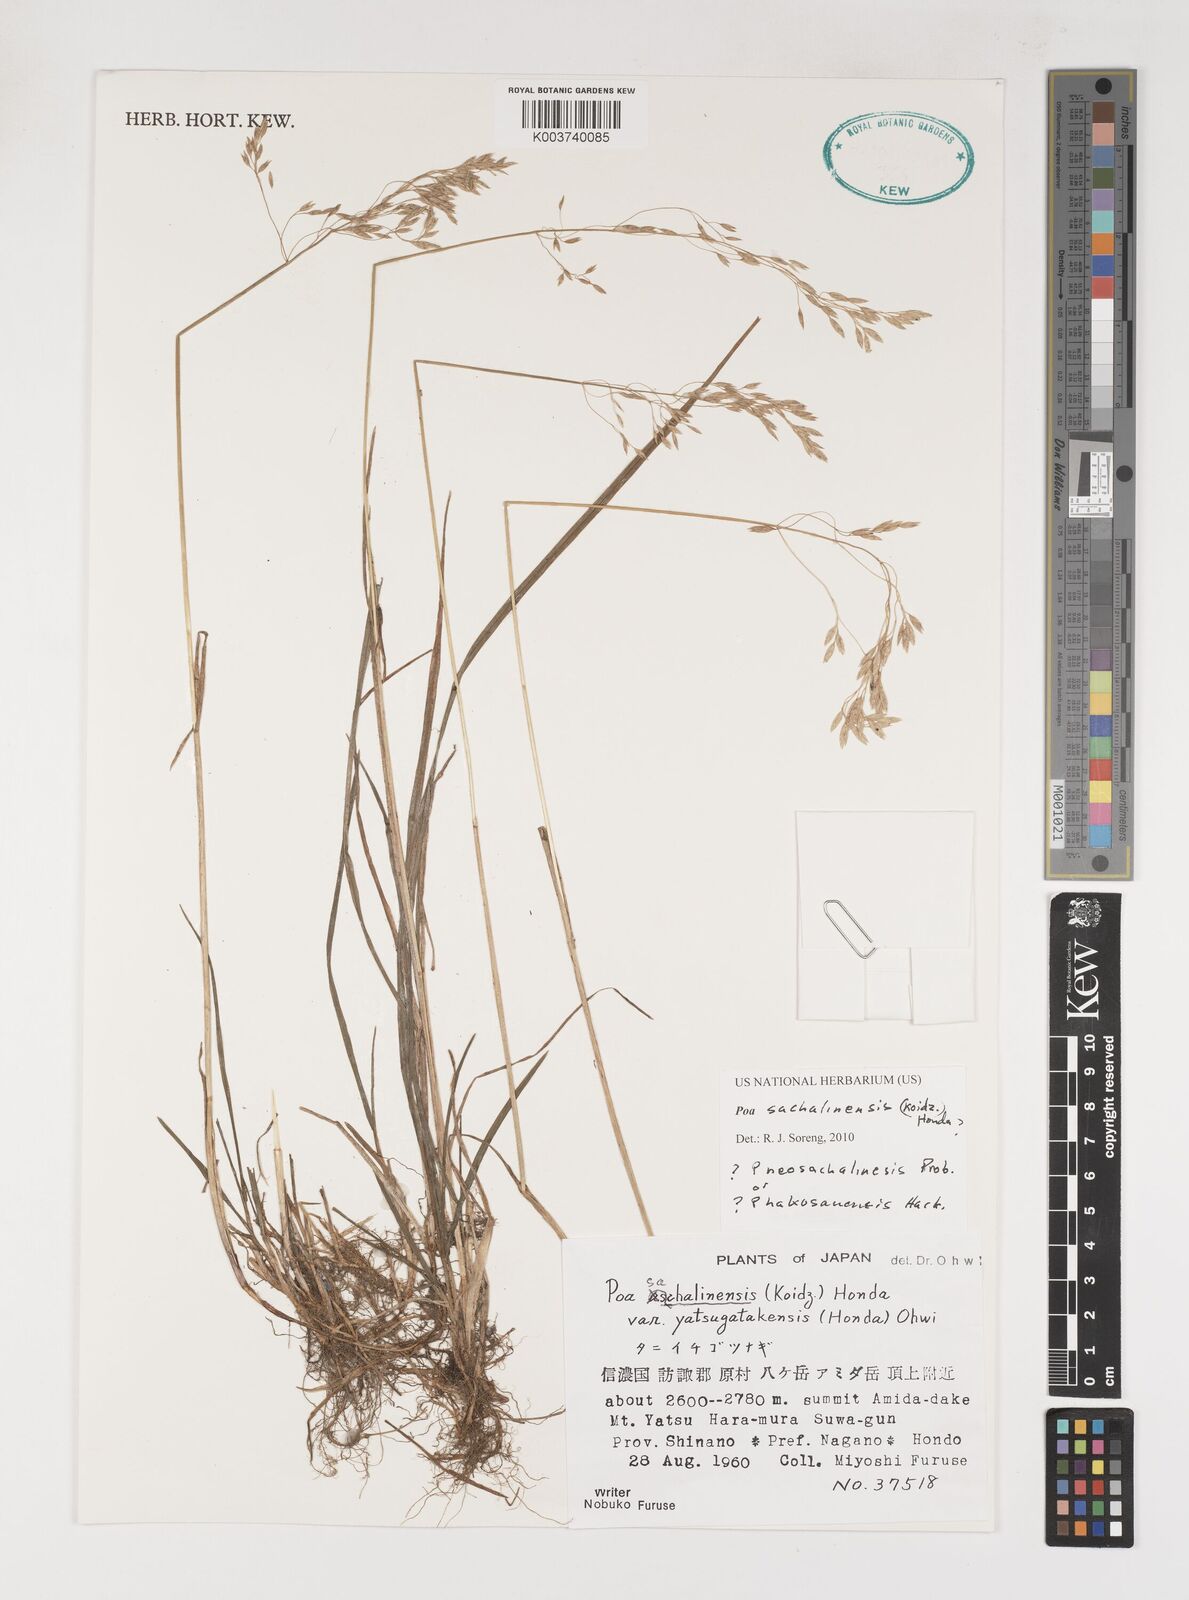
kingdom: Plantae
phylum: Tracheophyta
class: Liliopsida
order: Poales
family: Poaceae
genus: Poa
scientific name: Poa sachalinensis
